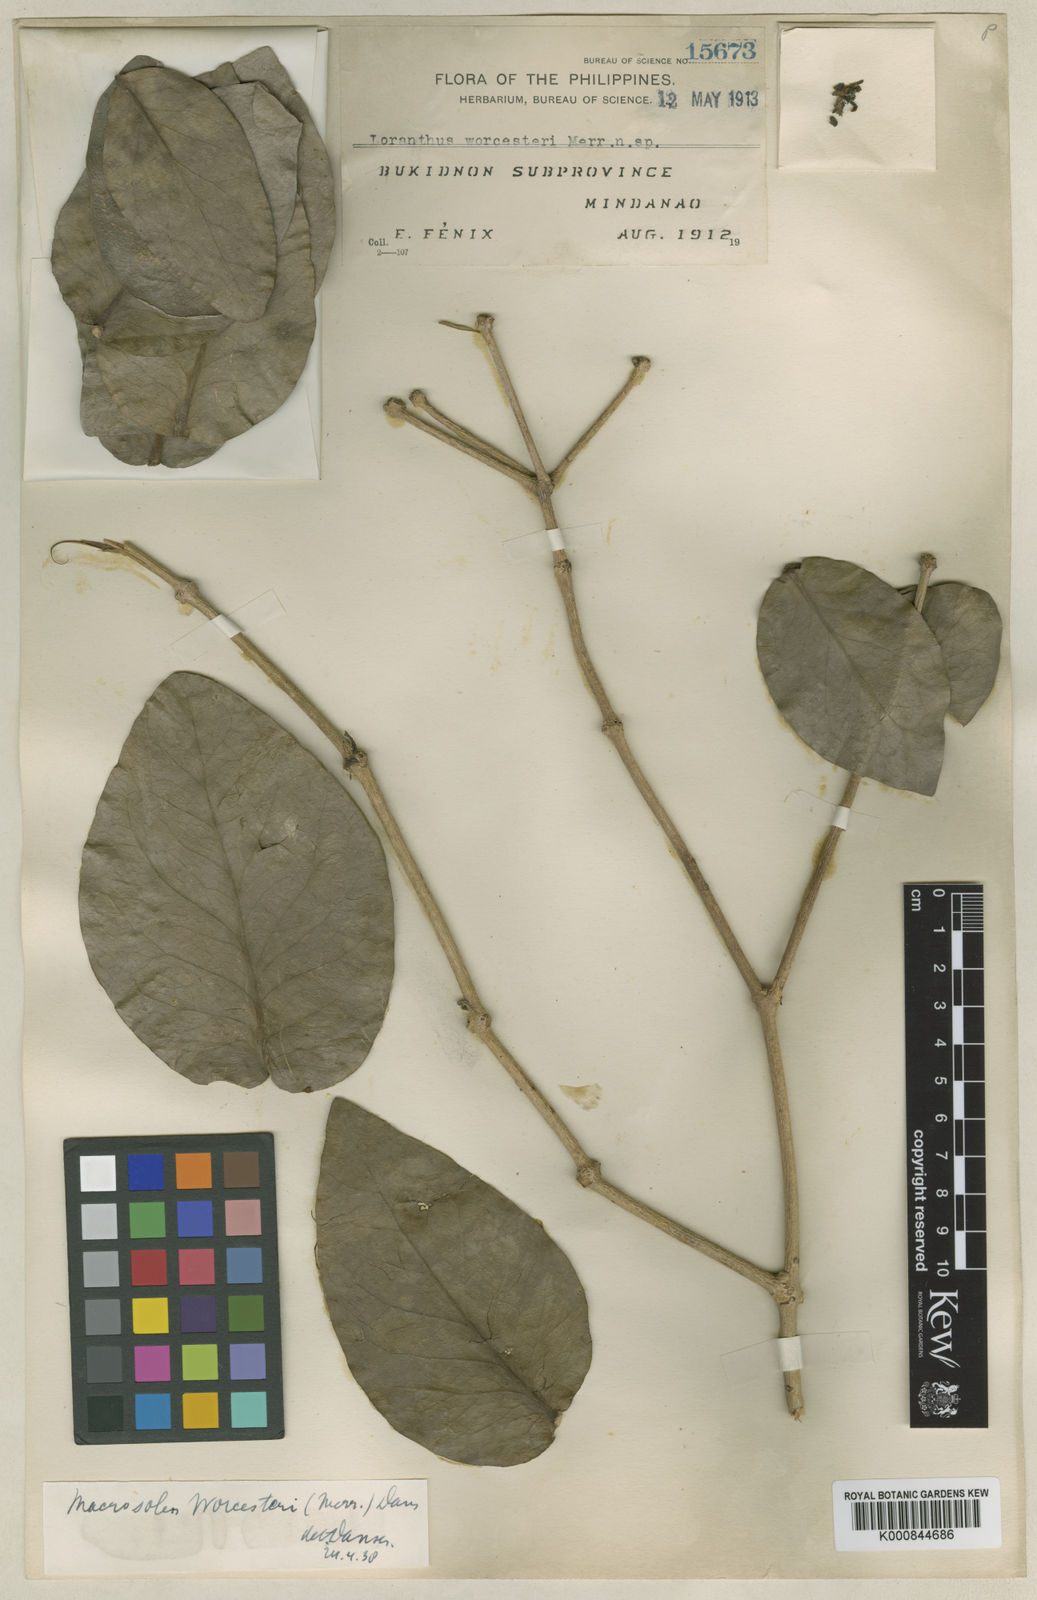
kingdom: Plantae
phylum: Tracheophyta
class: Magnoliopsida
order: Santalales
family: Loranthaceae
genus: Macrosolen
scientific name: Macrosolen geminatus
